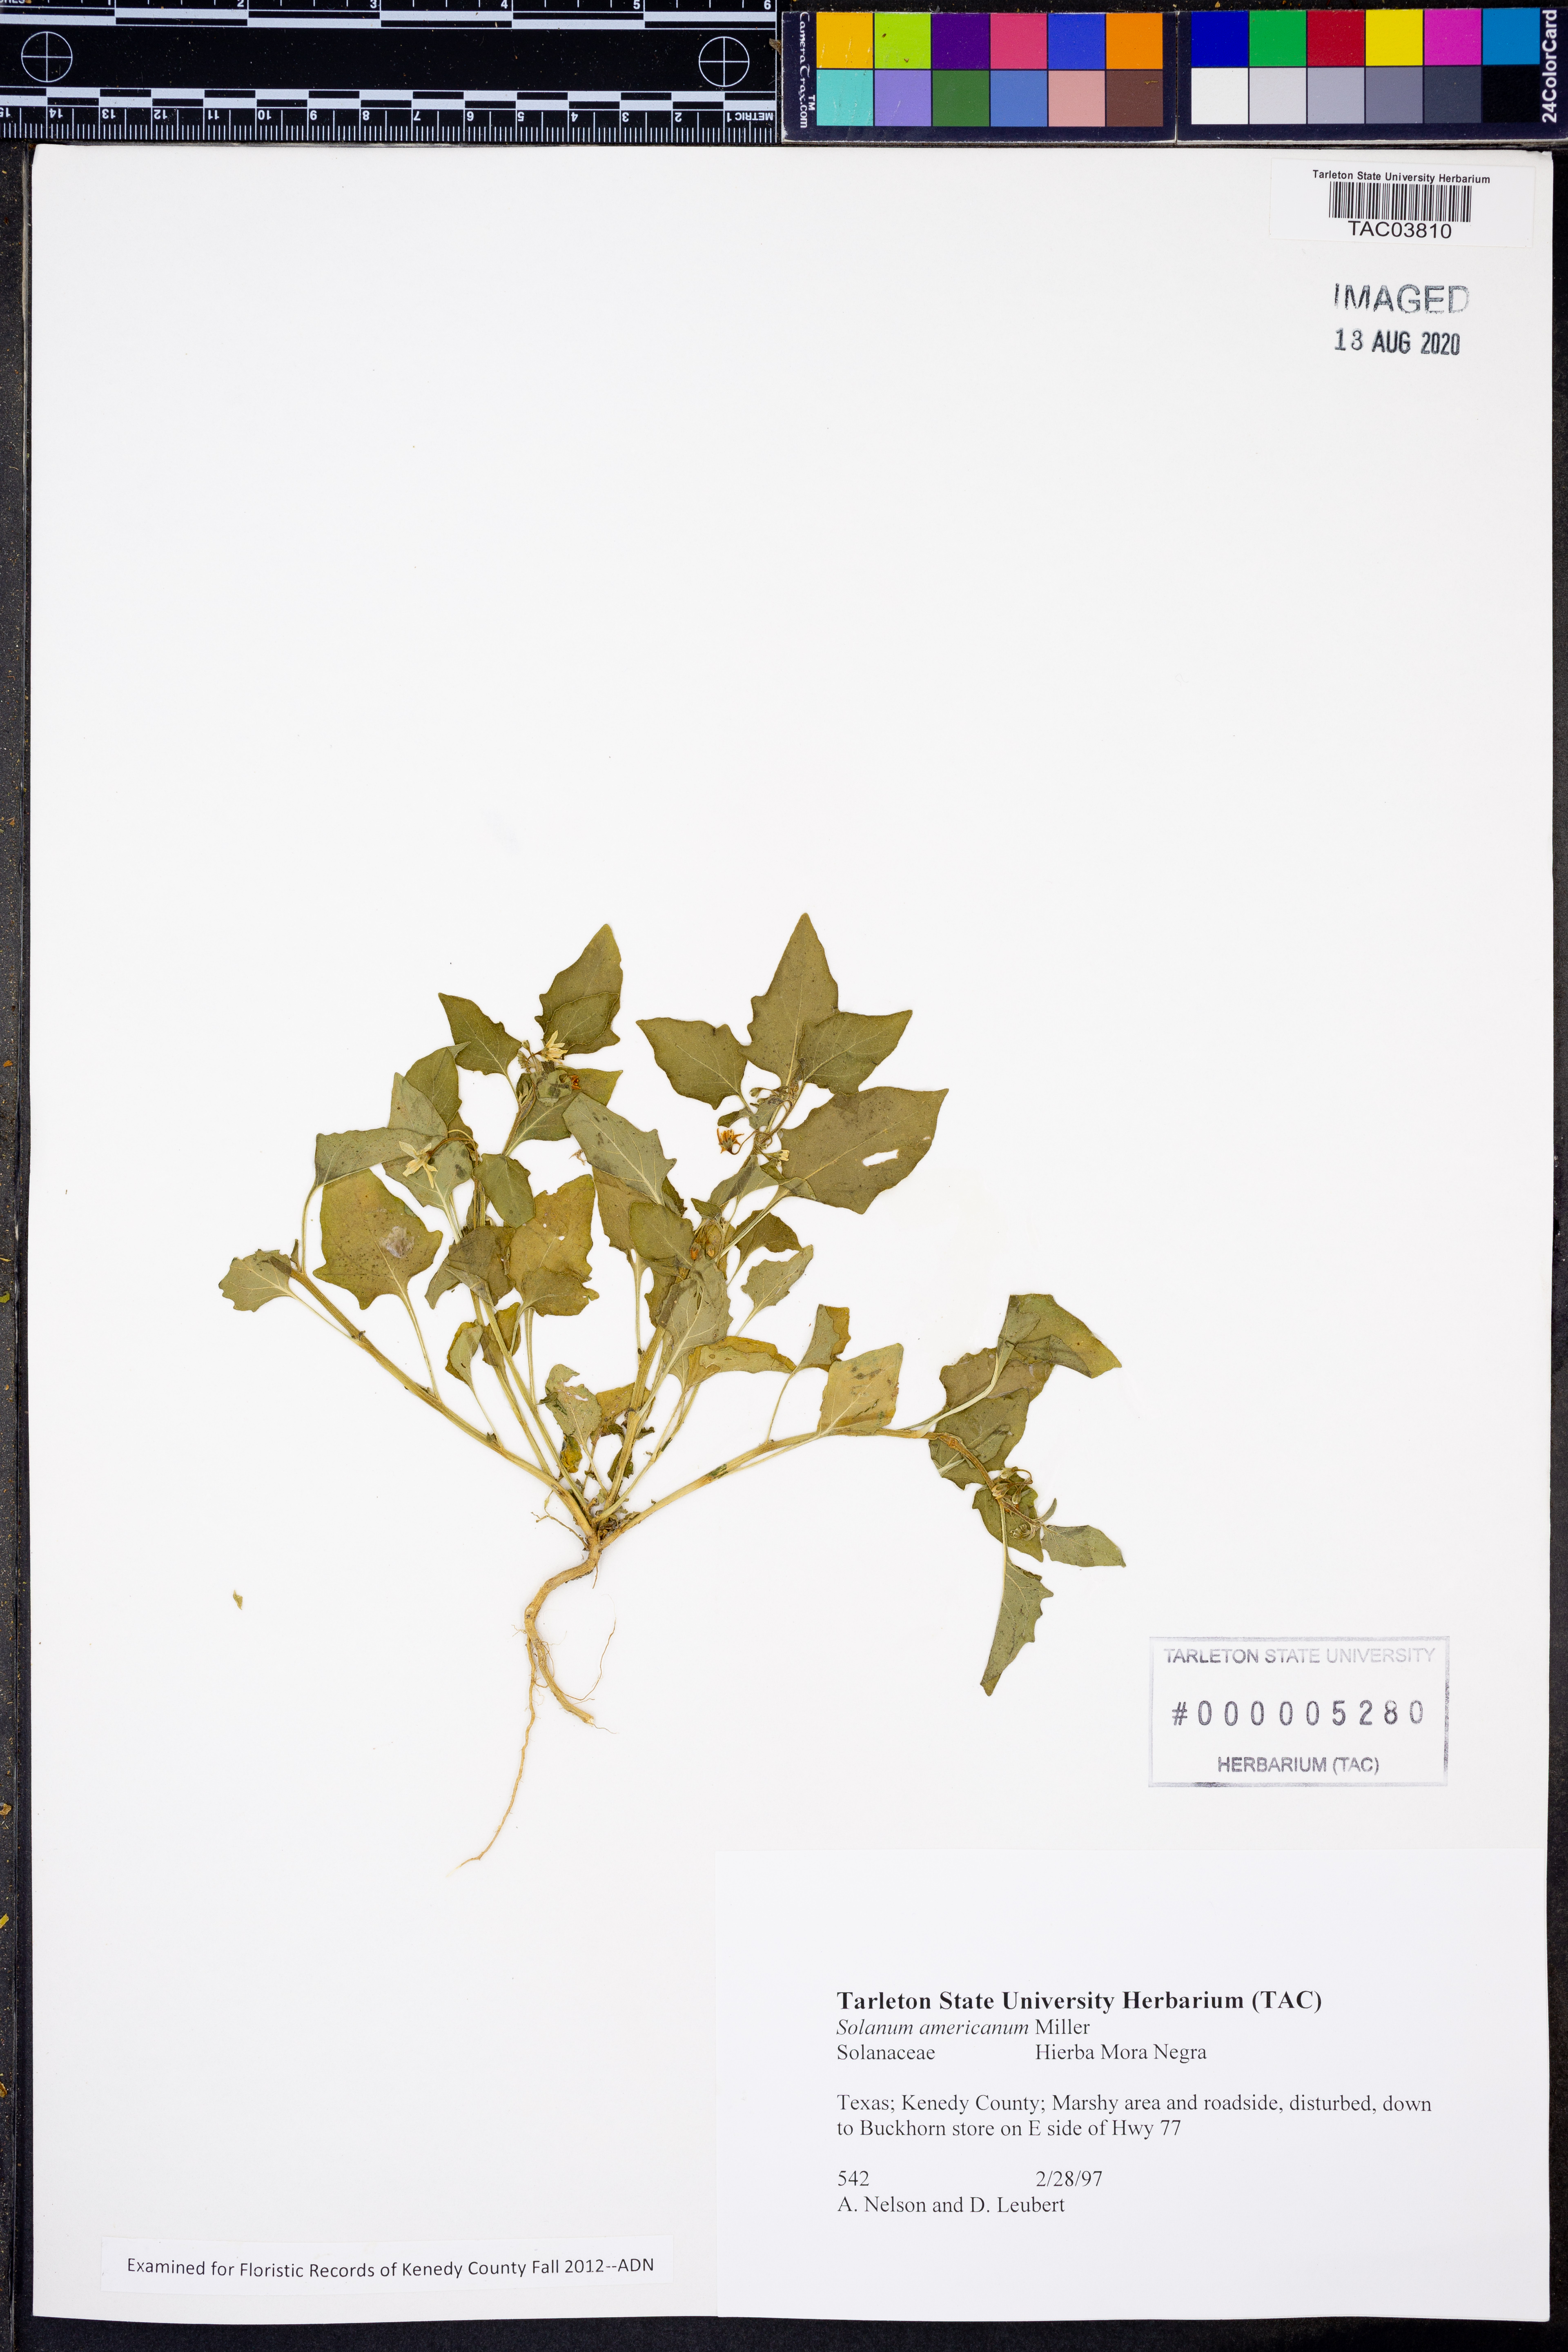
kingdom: Plantae
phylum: Tracheophyta
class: Magnoliopsida
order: Solanales
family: Solanaceae
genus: Solanum
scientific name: Solanum americanum
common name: American black nightshade
